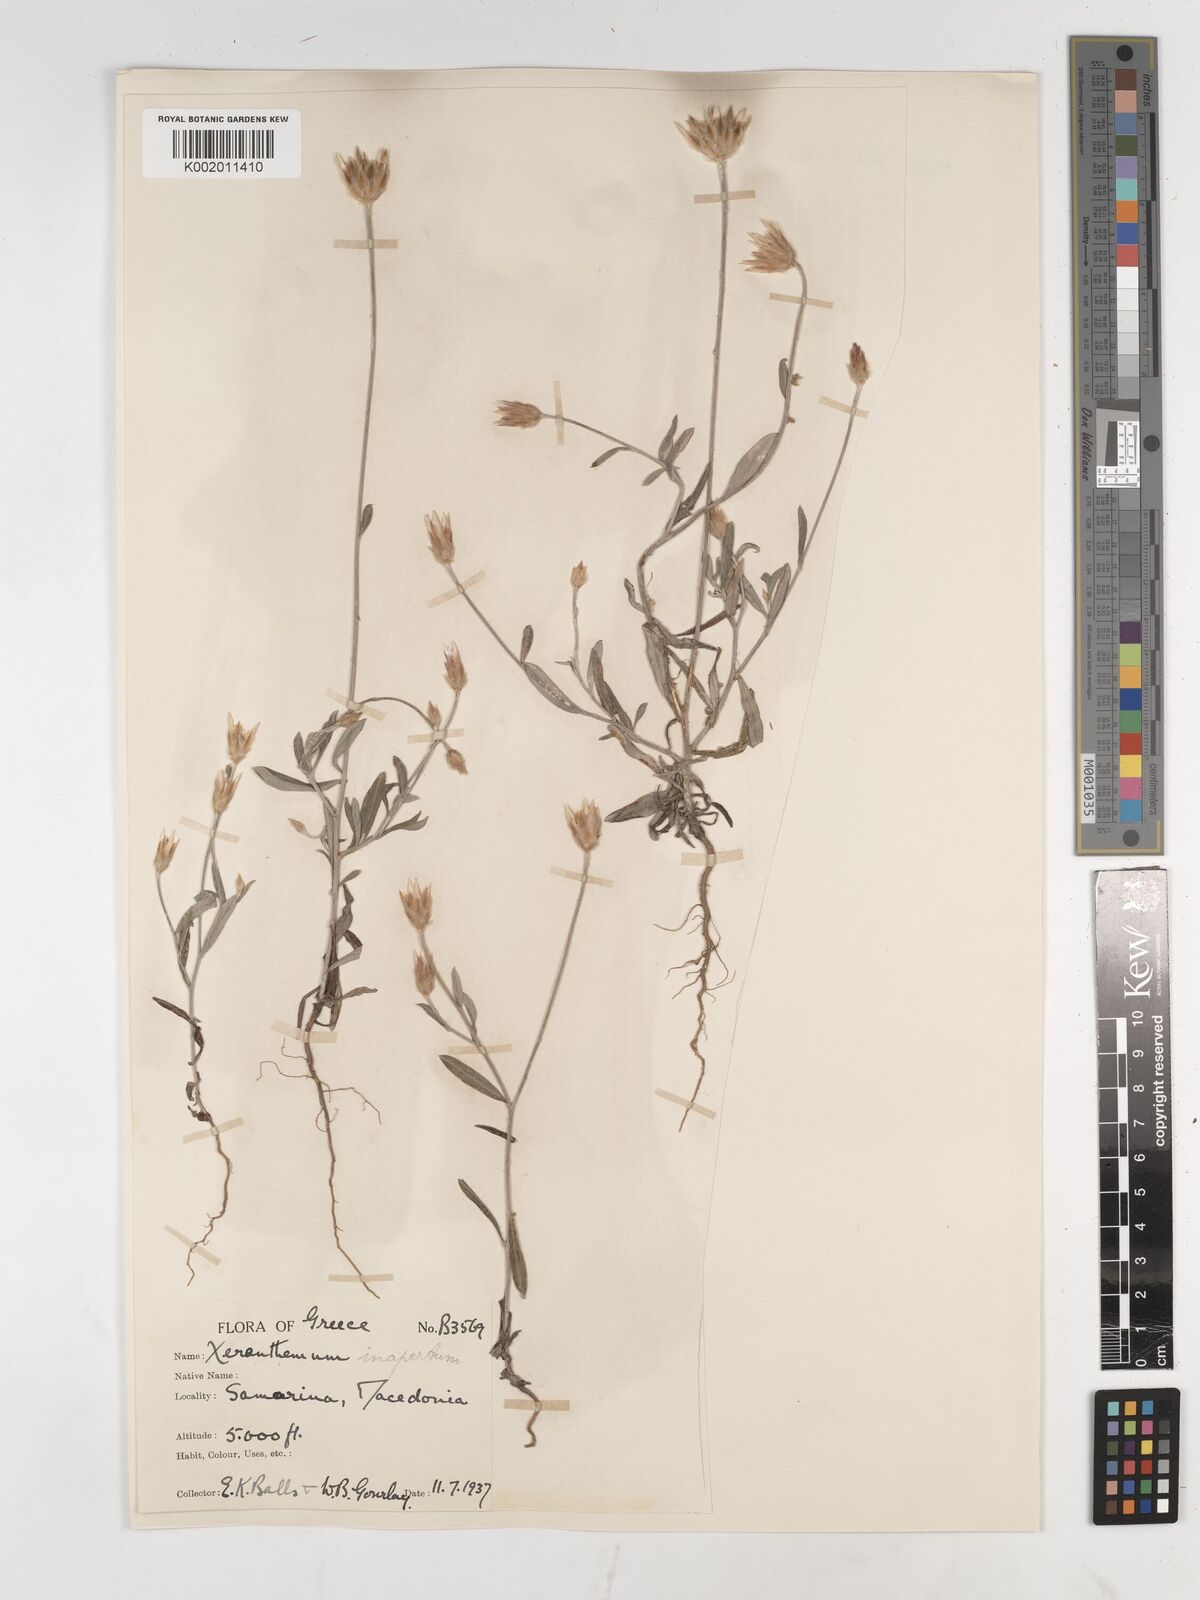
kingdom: Plantae
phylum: Tracheophyta
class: Magnoliopsida
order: Asterales
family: Asteraceae
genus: Xeranthemum
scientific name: Xeranthemum inapertum
